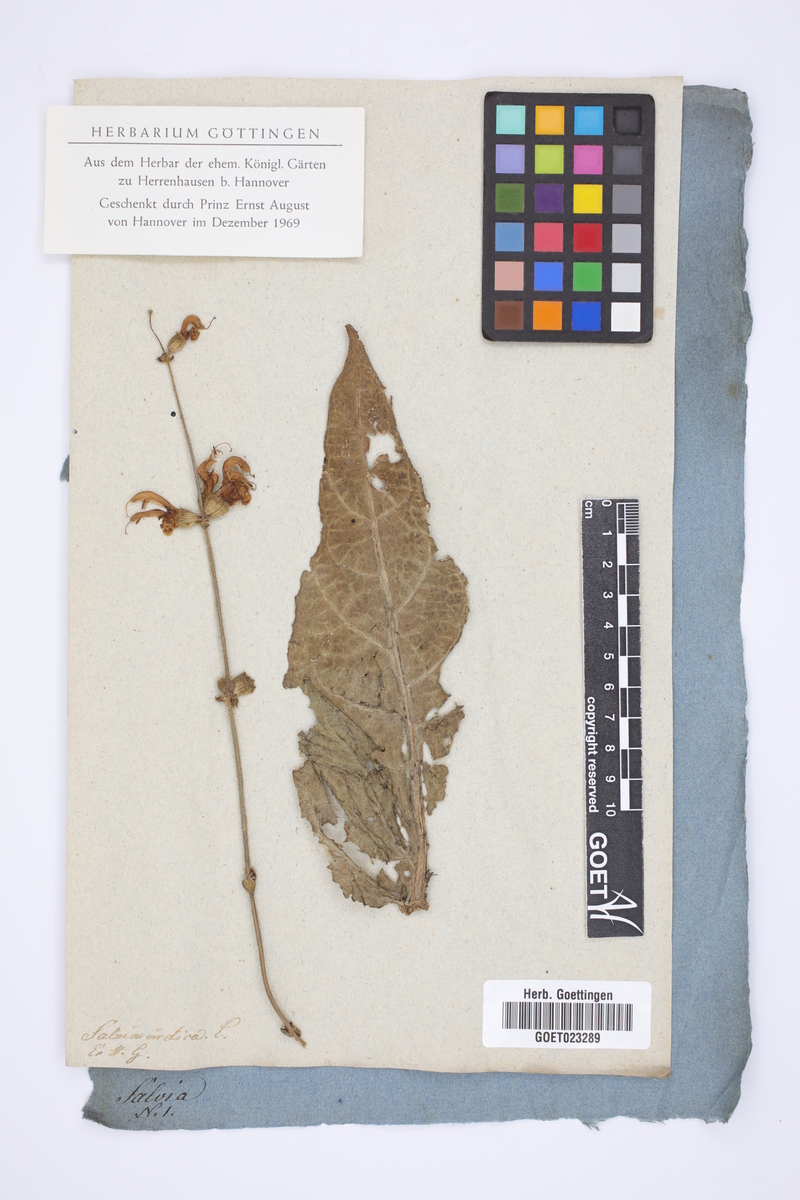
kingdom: Plantae
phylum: Tracheophyta
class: Magnoliopsida
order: Lamiales
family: Lamiaceae
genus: Salvia
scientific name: Salvia indica
